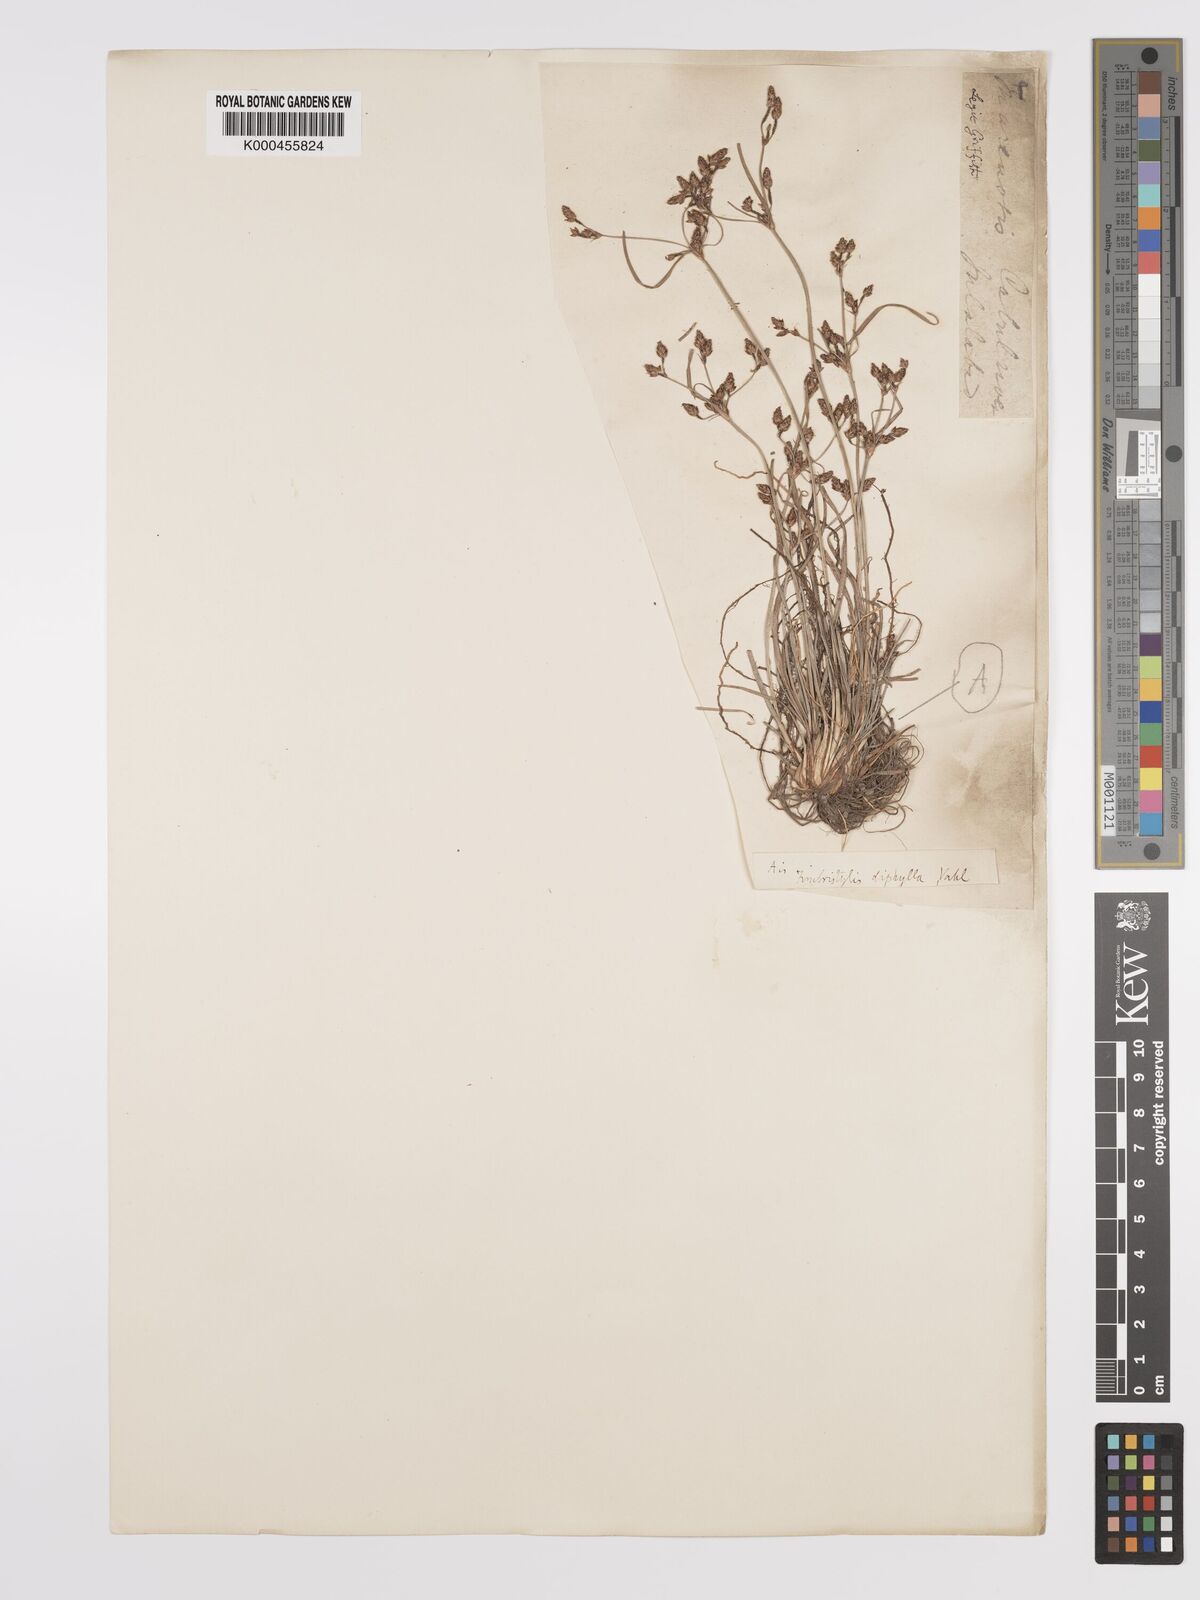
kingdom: Plantae
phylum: Tracheophyta
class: Liliopsida
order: Poales
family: Cyperaceae
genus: Fimbristylis
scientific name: Fimbristylis dichotoma
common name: Forked fimbry
